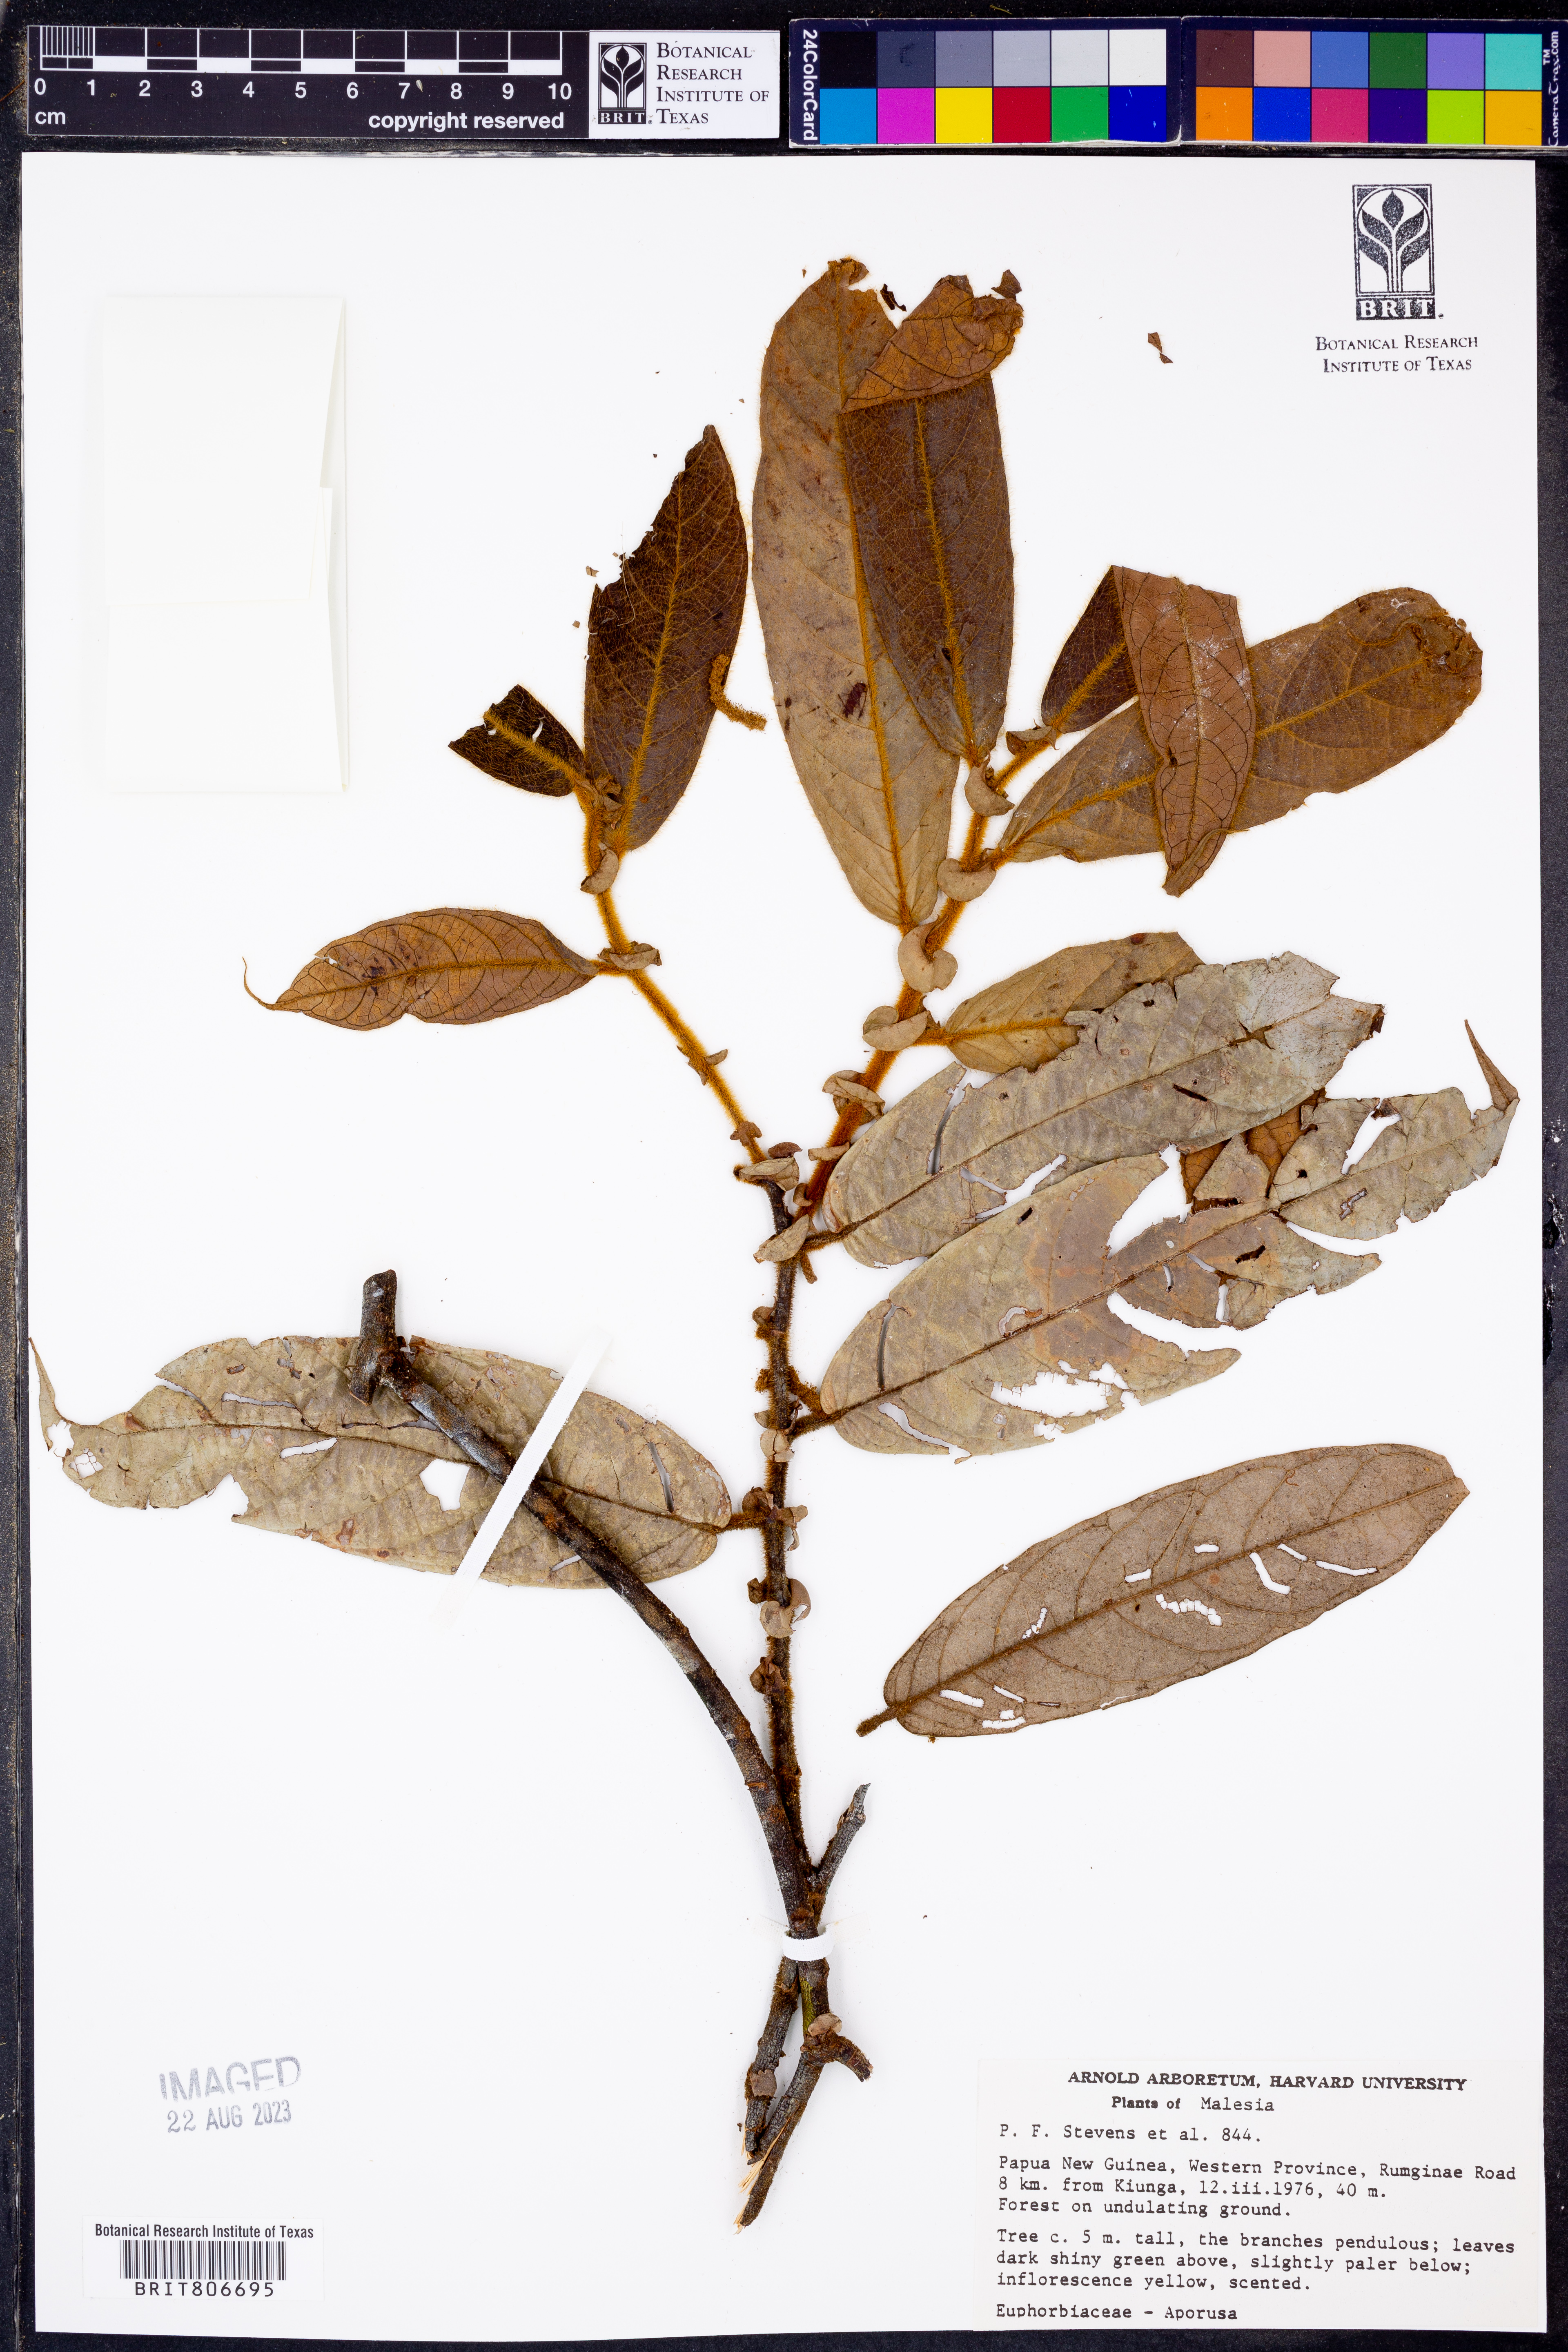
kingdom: Plantae
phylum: Tracheophyta
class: Magnoliopsida
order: Malpighiales
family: Phyllanthaceae
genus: Aporosa
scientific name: Aporosa
